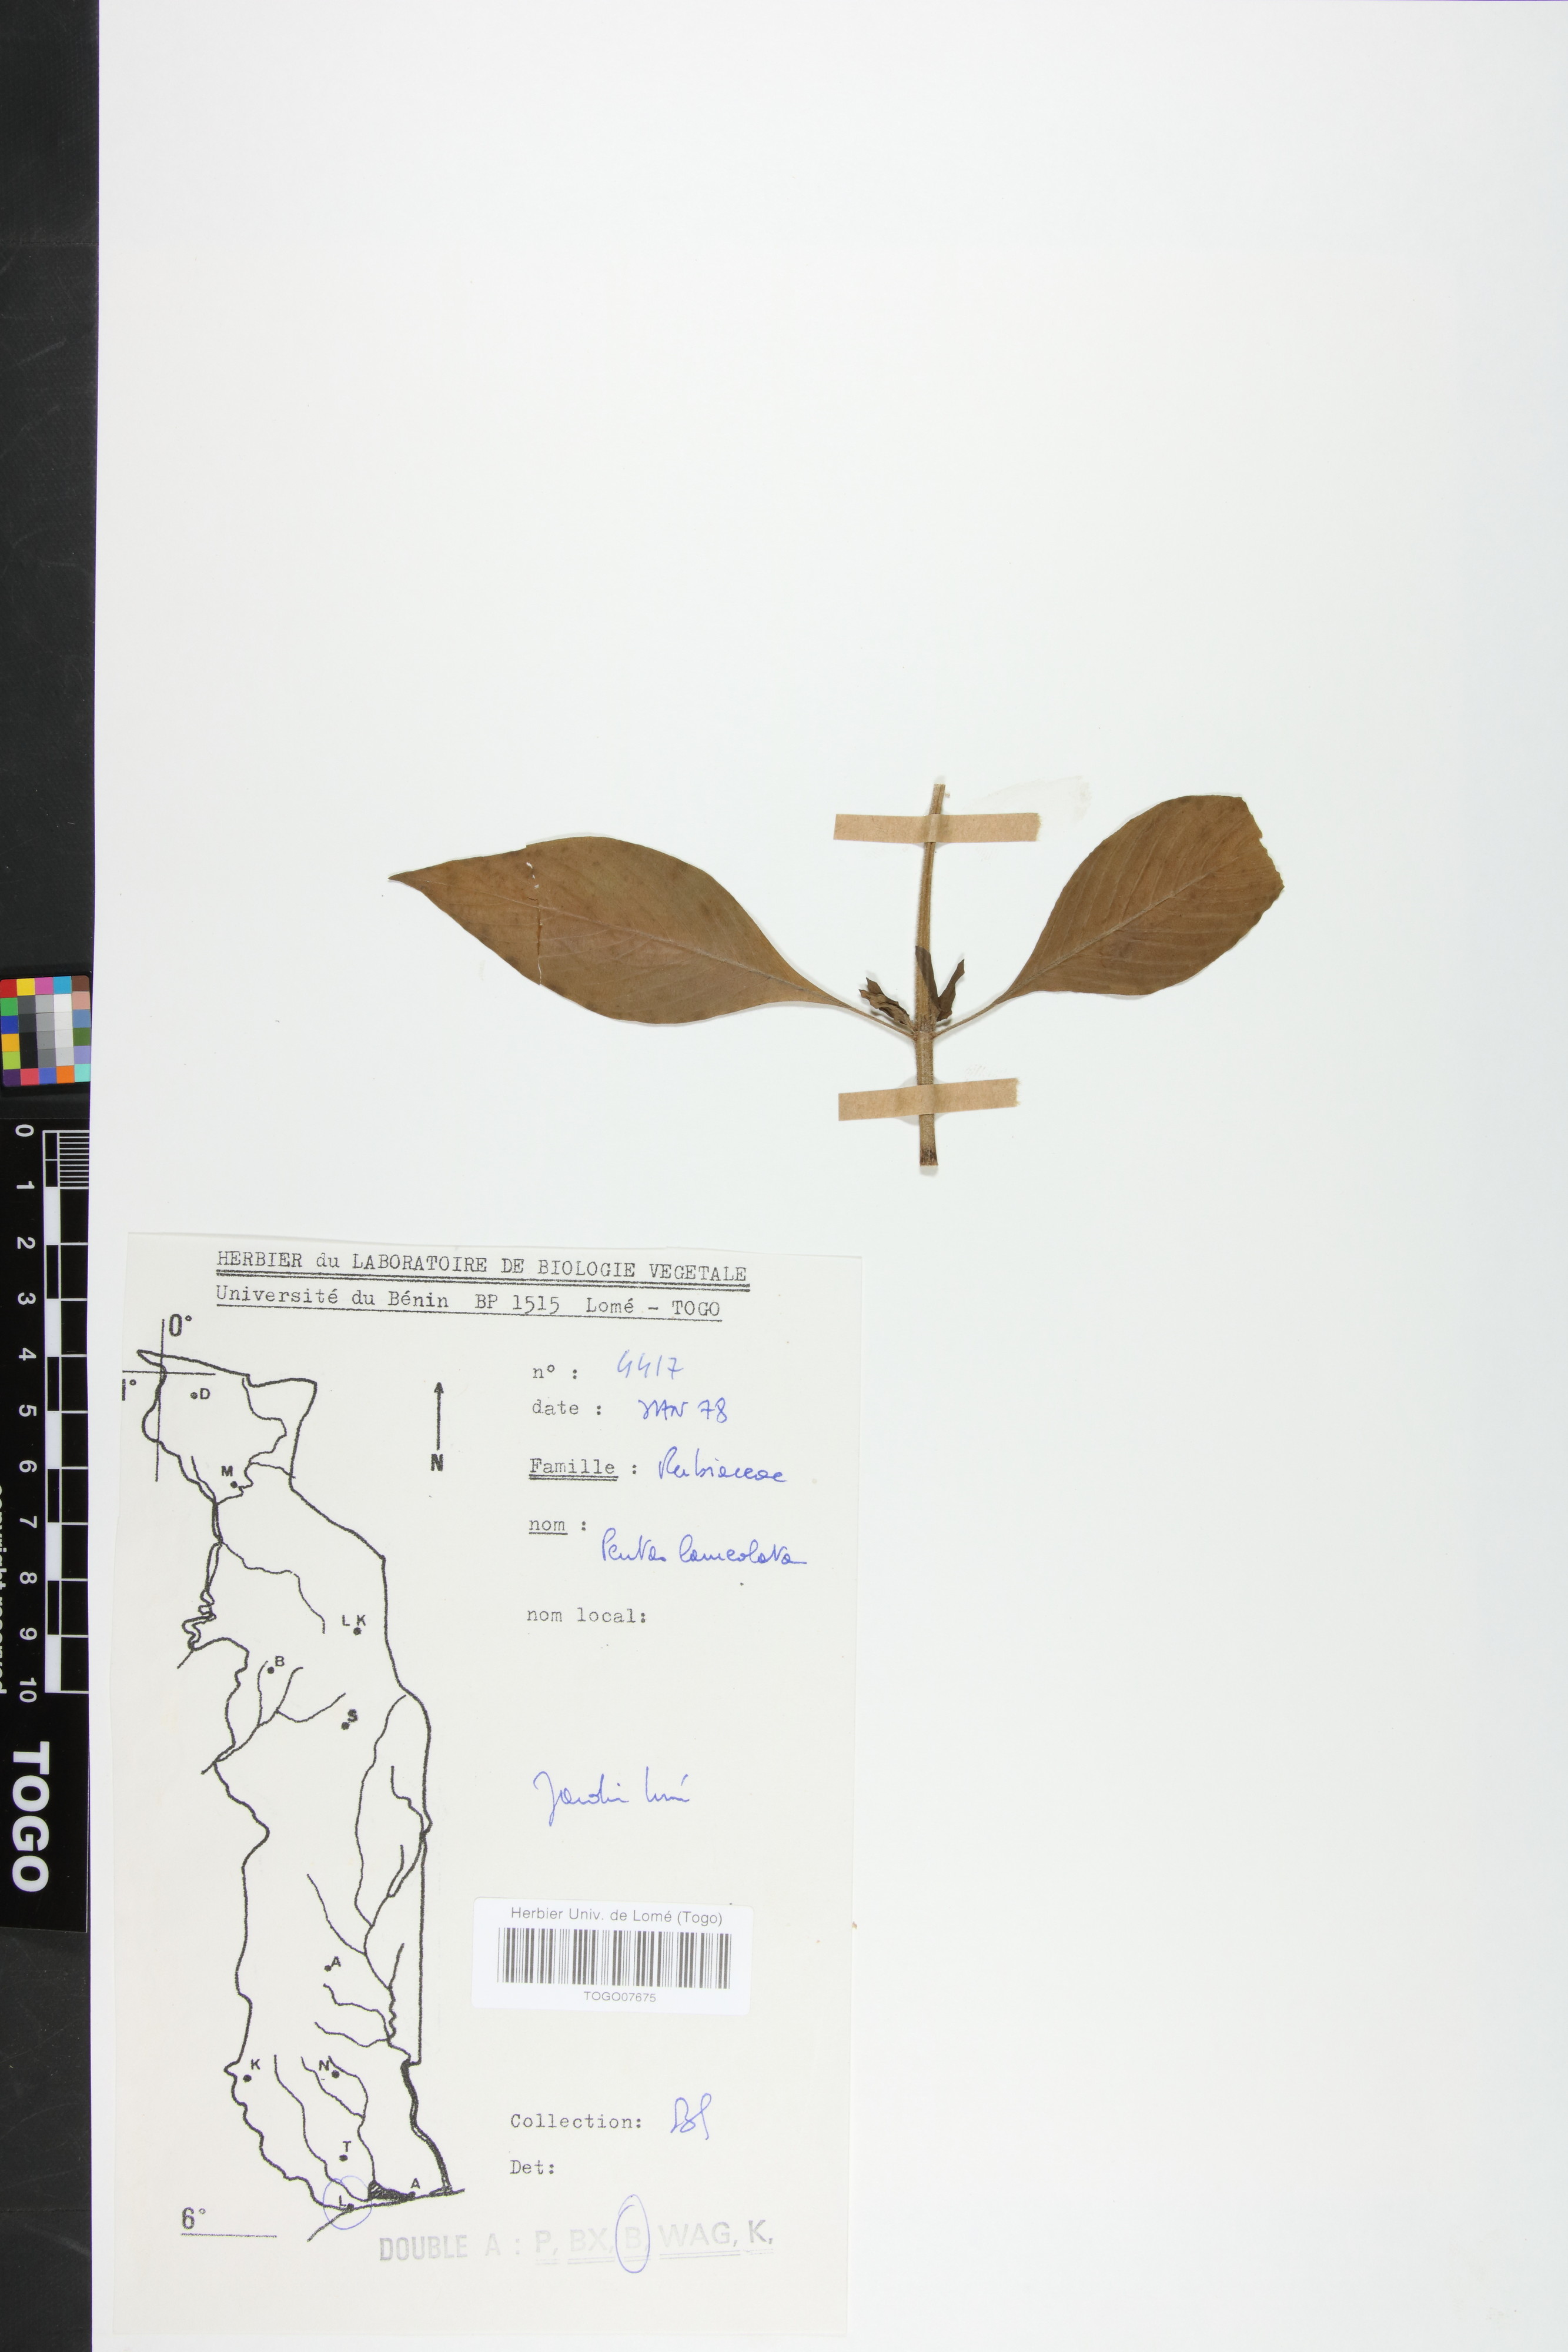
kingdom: Plantae
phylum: Tracheophyta
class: Magnoliopsida
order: Gentianales
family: Rubiaceae
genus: Pentas
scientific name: Pentas lanceolata
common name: Egyptian starcluster
